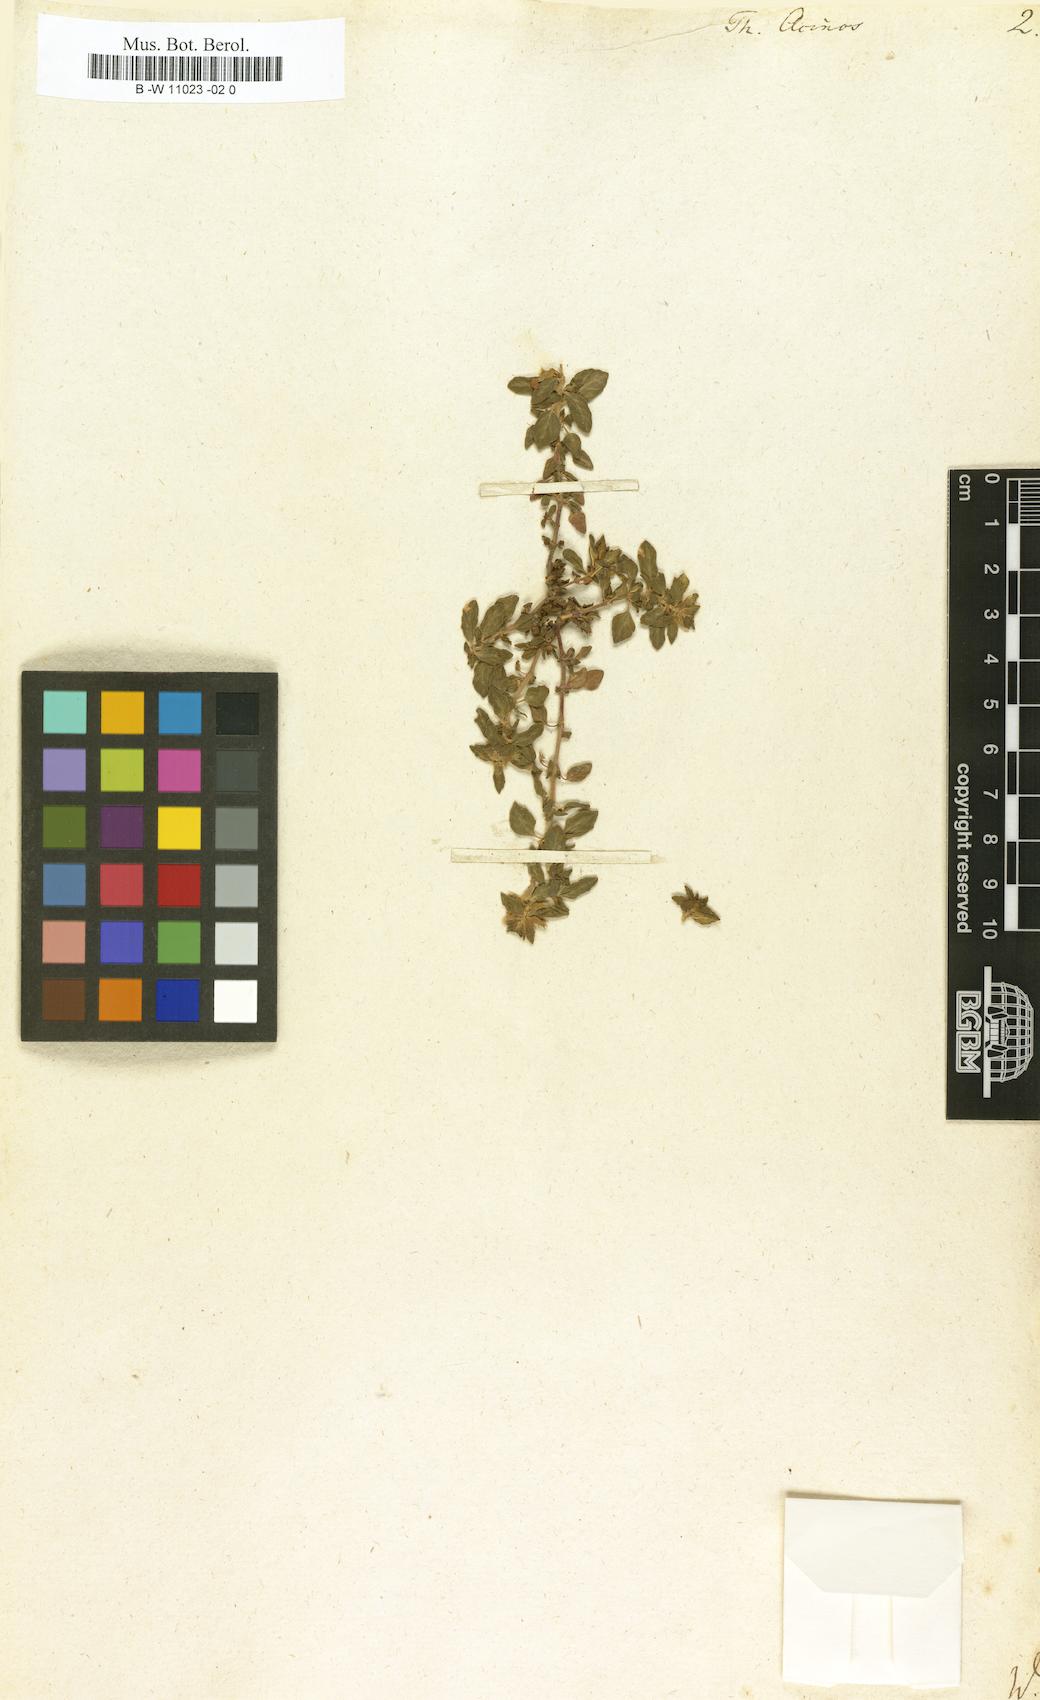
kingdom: Plantae
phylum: Tracheophyta
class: Magnoliopsida
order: Lamiales
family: Lamiaceae
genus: Clinopodium
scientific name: Clinopodium acinos
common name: Basil thyme
